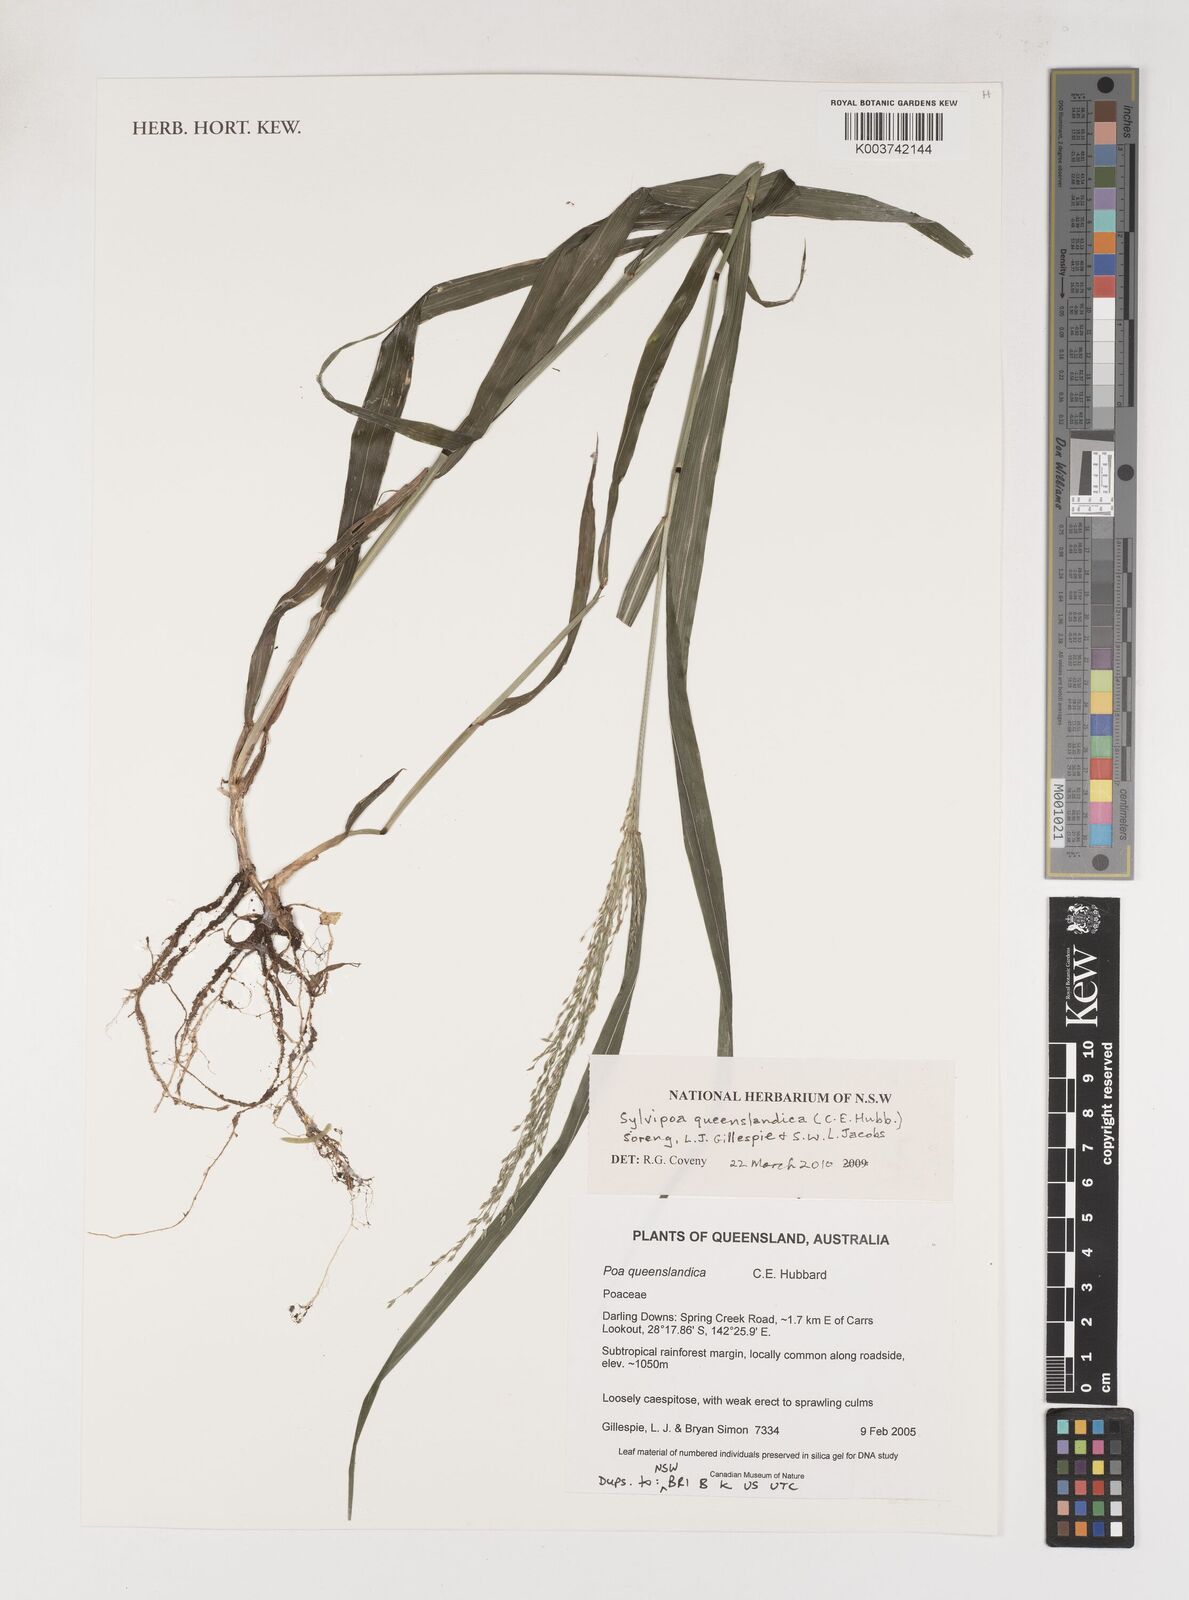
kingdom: Plantae
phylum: Tracheophyta
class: Liliopsida
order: Poales
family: Poaceae
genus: Sylvipoa
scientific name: Sylvipoa queenslandica
